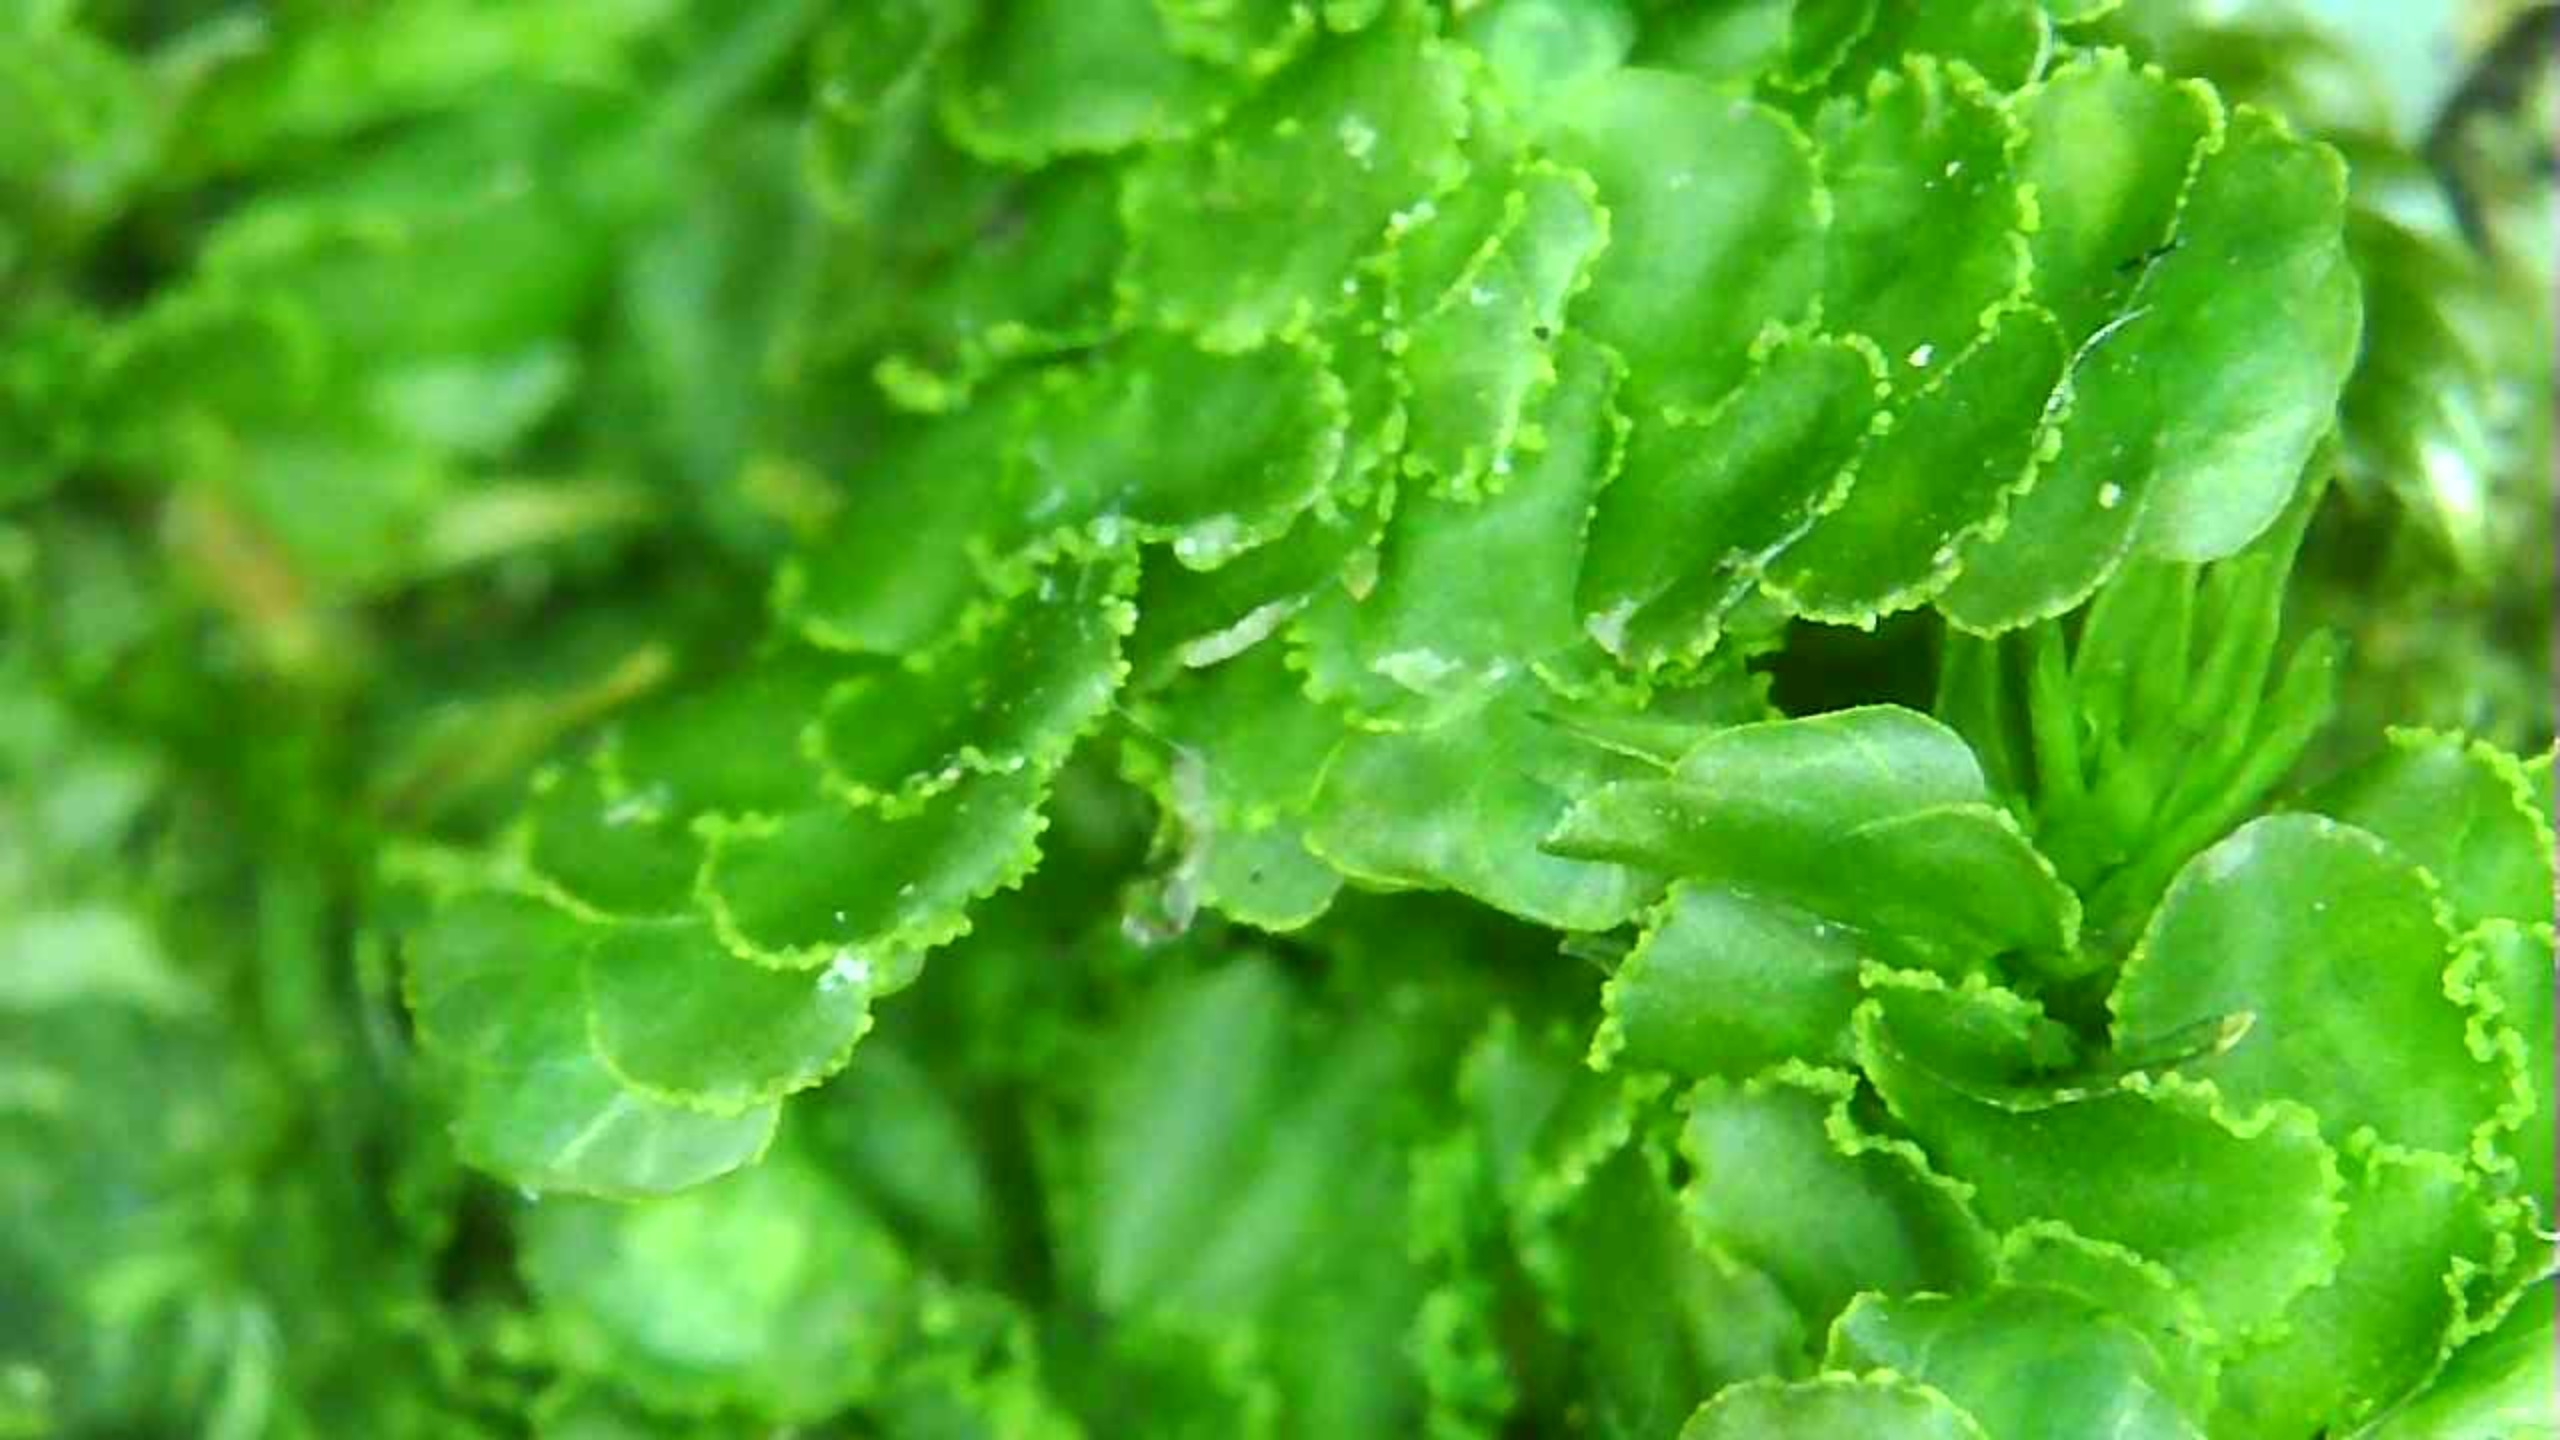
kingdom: Plantae
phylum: Marchantiophyta
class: Jungermanniopsida
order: Porellales
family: Radulaceae
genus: Radula
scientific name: Radula complanata
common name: Almindelig spartelmos
